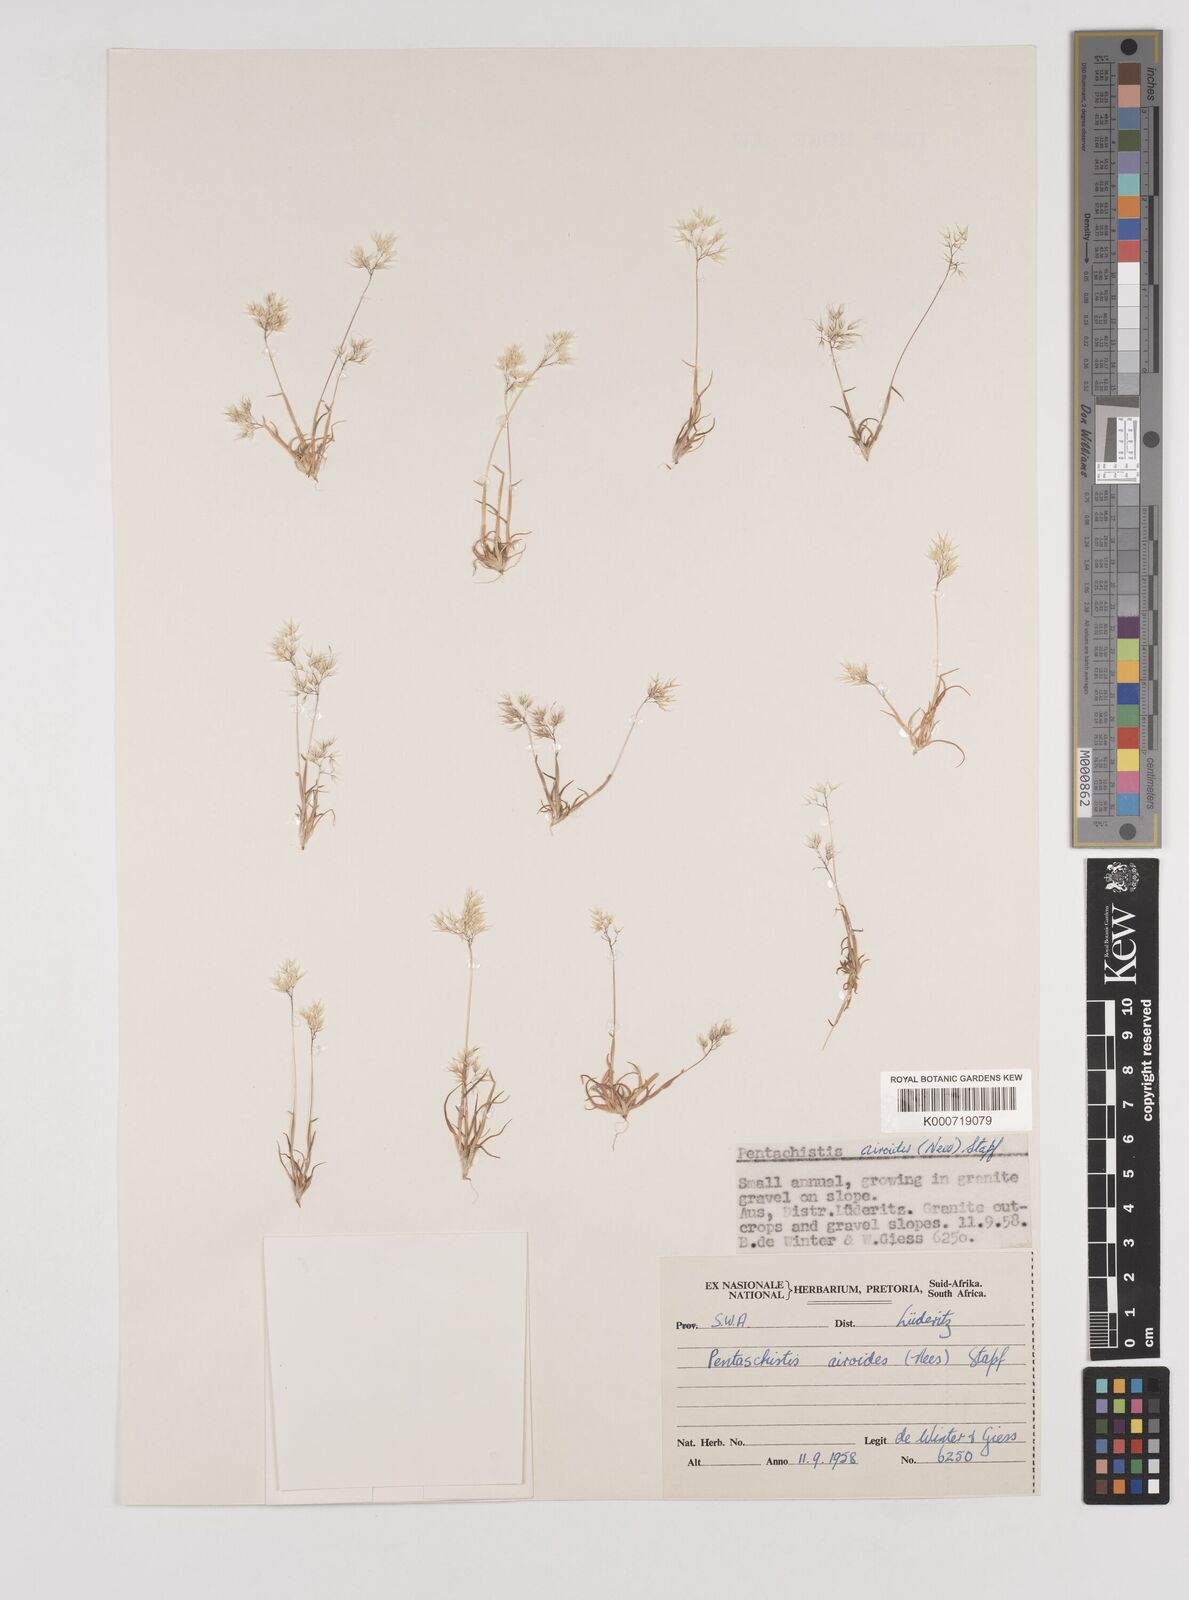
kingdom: Plantae
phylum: Tracheophyta
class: Liliopsida
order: Poales
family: Poaceae
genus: Pentameris
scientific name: Pentameris airoides
